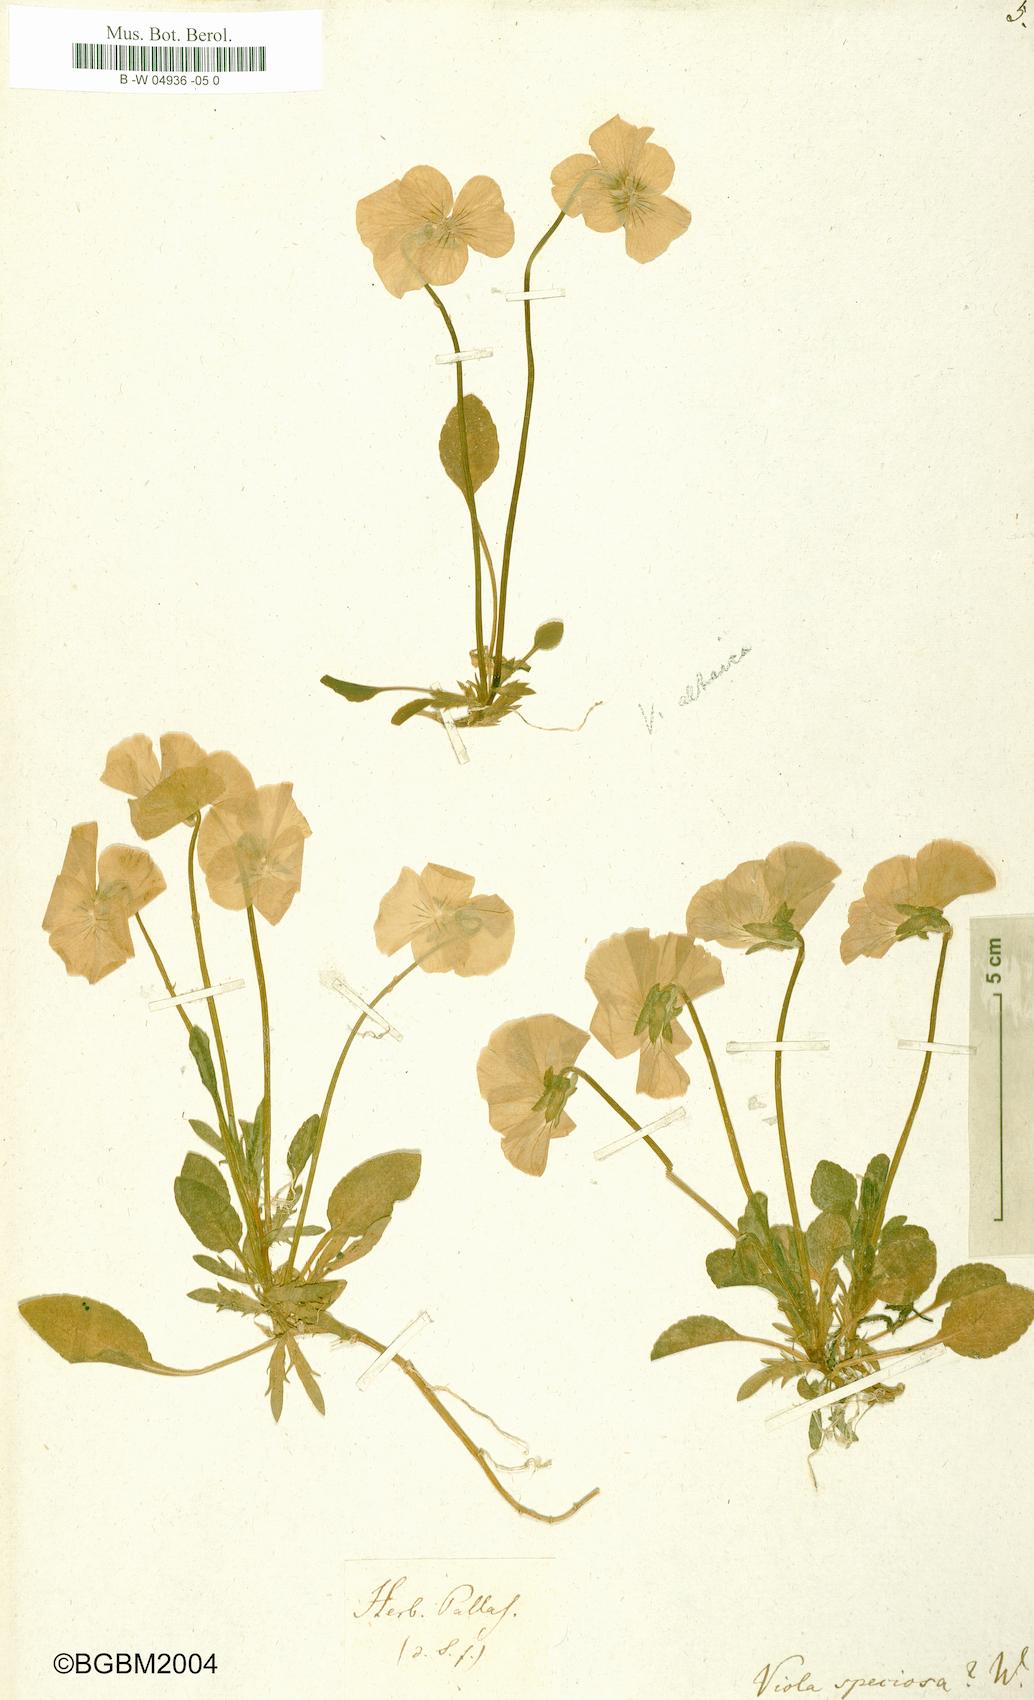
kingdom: Plantae
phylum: Tracheophyta
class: Magnoliopsida
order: Malpighiales
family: Violaceae
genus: Viola
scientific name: Viola
